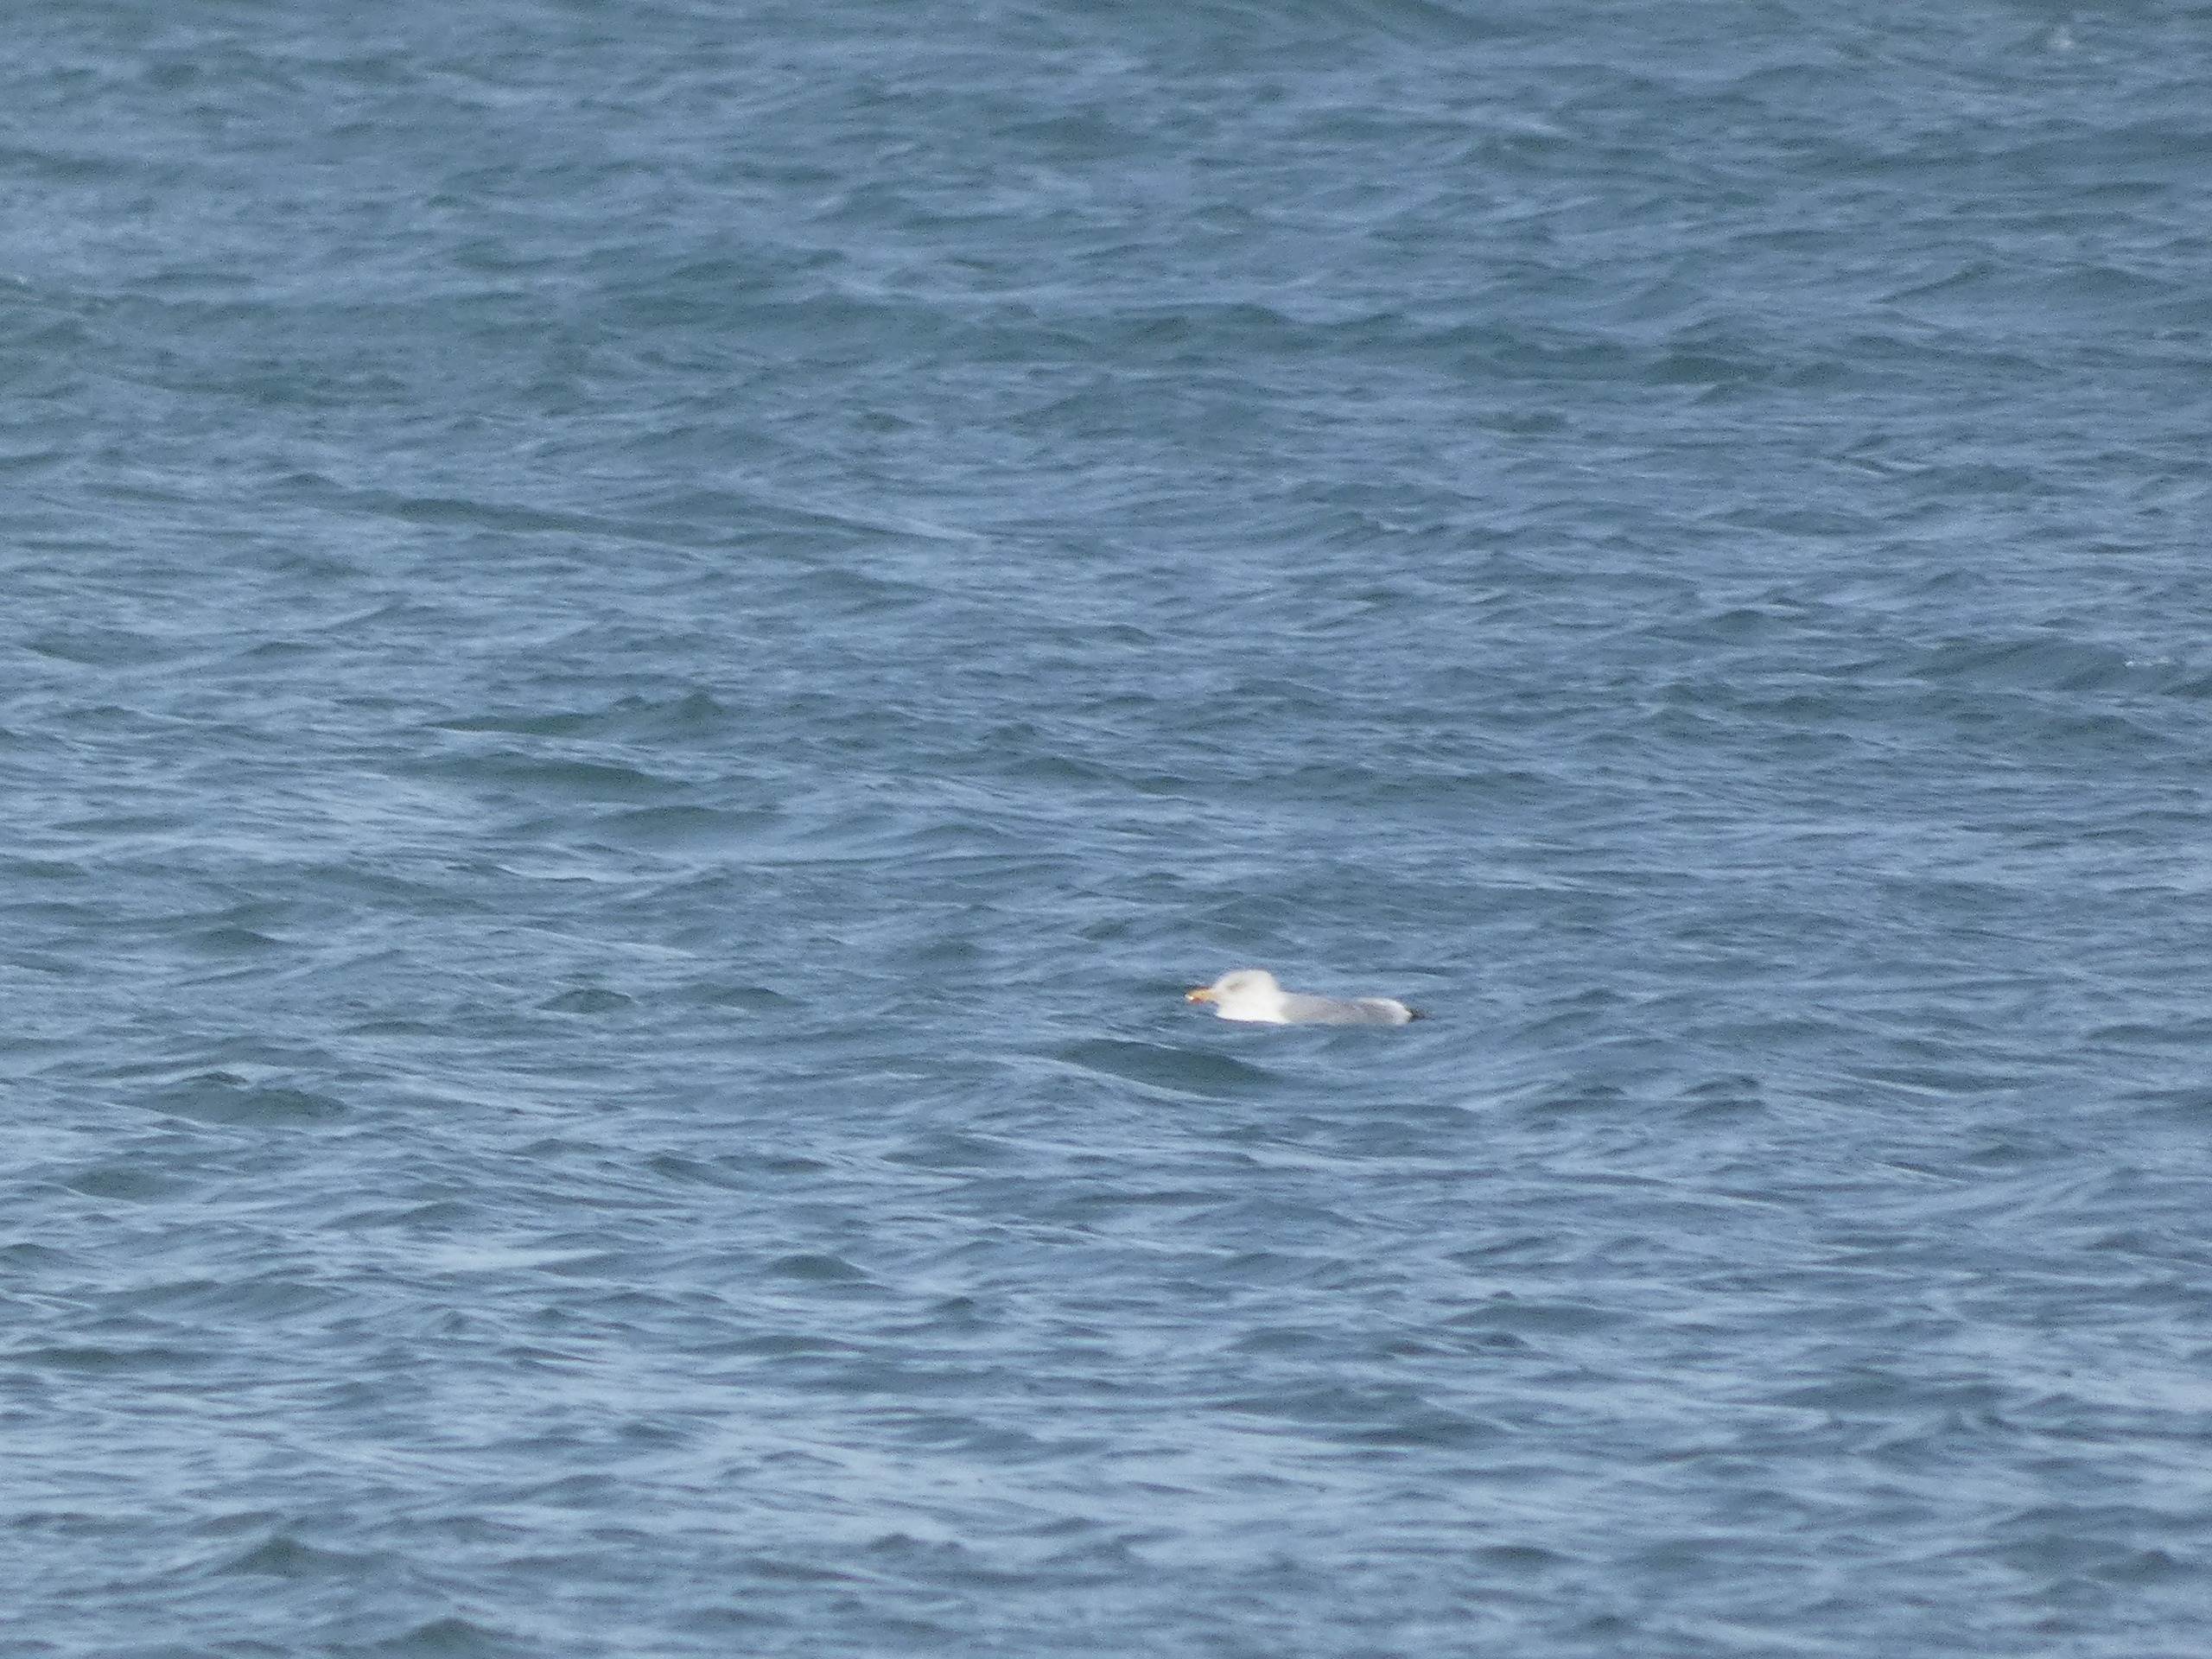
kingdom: Animalia
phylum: Chordata
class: Aves
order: Charadriiformes
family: Laridae
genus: Larus
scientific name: Larus argentatus
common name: Sølvmåge
